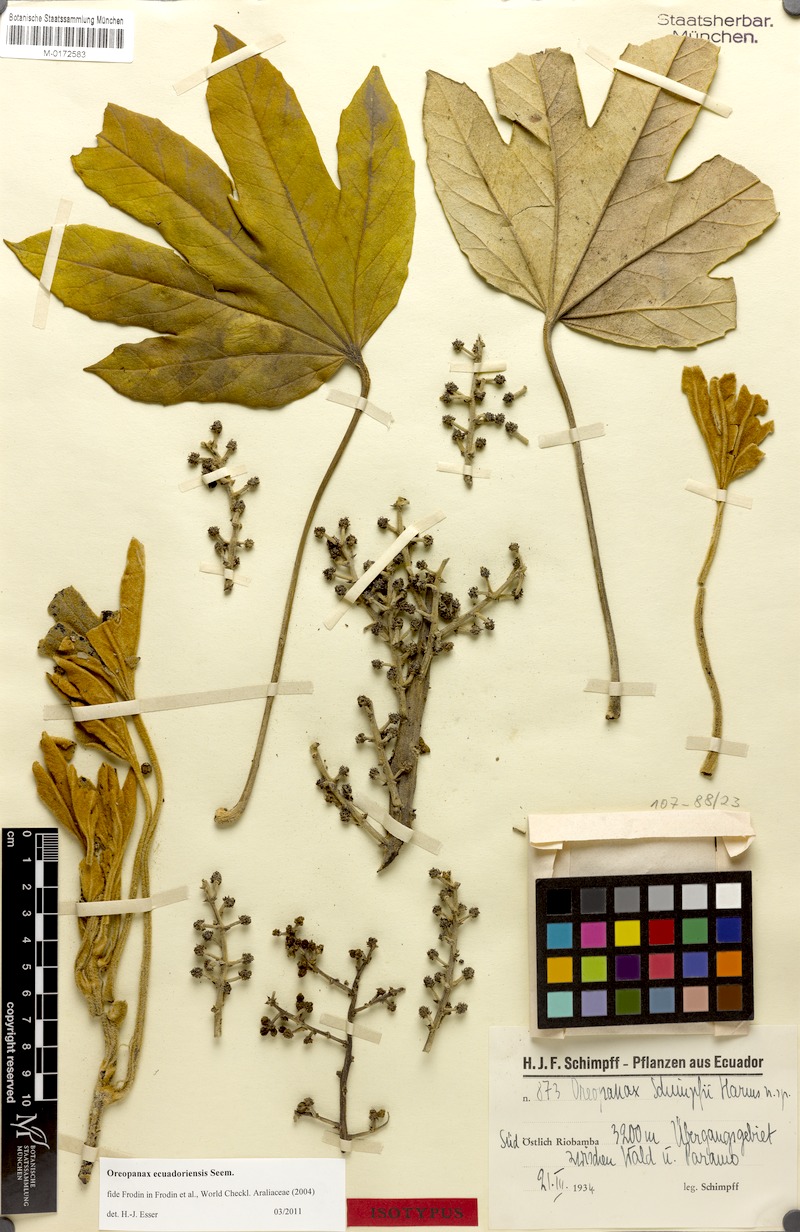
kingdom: Plantae
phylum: Tracheophyta
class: Magnoliopsida
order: Apiales
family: Araliaceae
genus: Oreopanax
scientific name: Oreopanax ecuadoriensis
